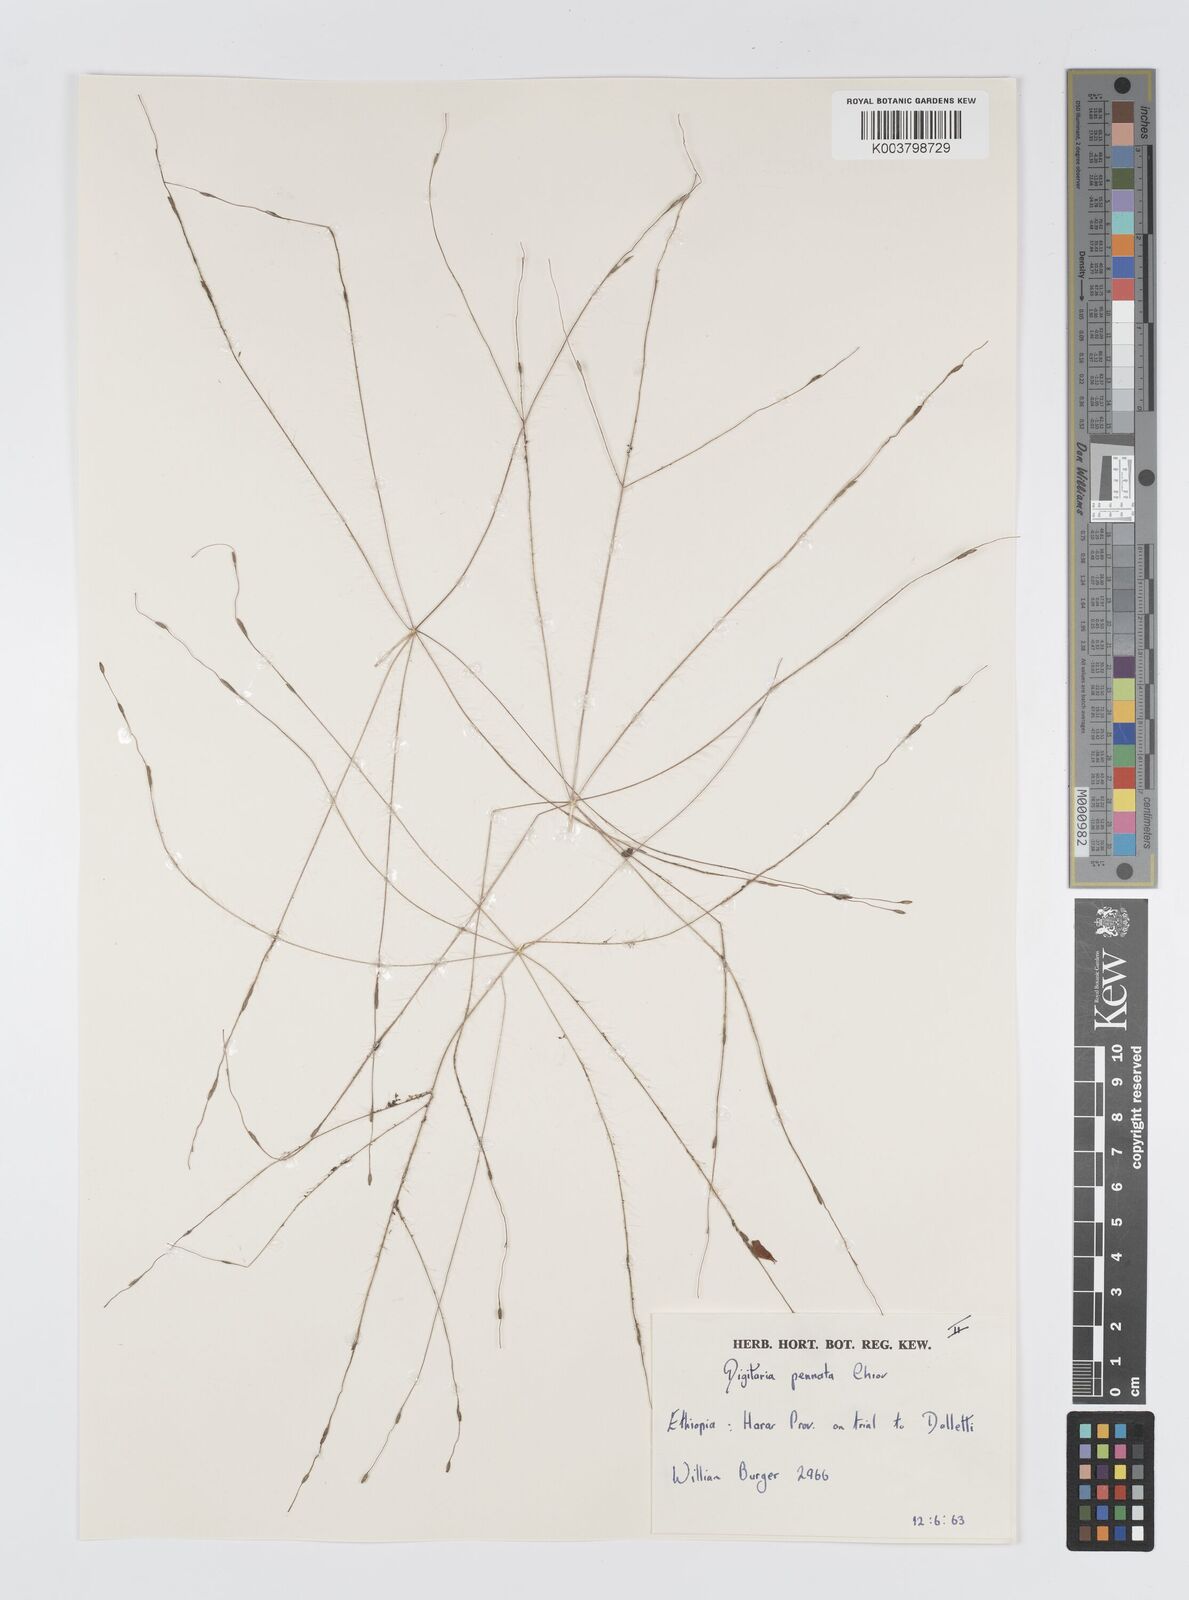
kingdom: Plantae
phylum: Tracheophyta
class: Liliopsida
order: Poales
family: Poaceae
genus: Digitaria
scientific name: Digitaria pennata
